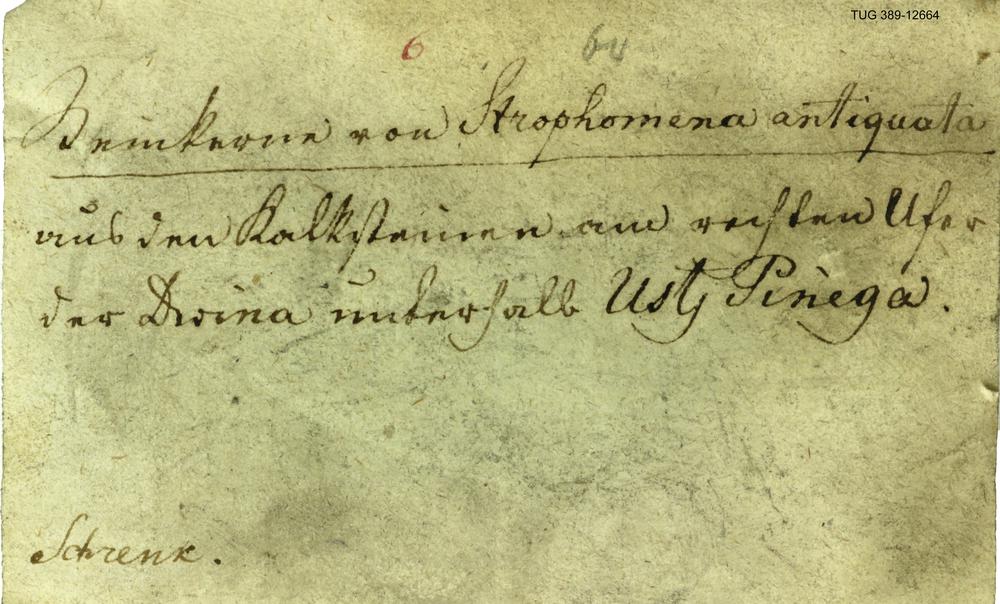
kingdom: Animalia
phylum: Brachiopoda
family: Strophomenidae
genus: Katastrophomena
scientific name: Katastrophomena Strophomena antiquata
